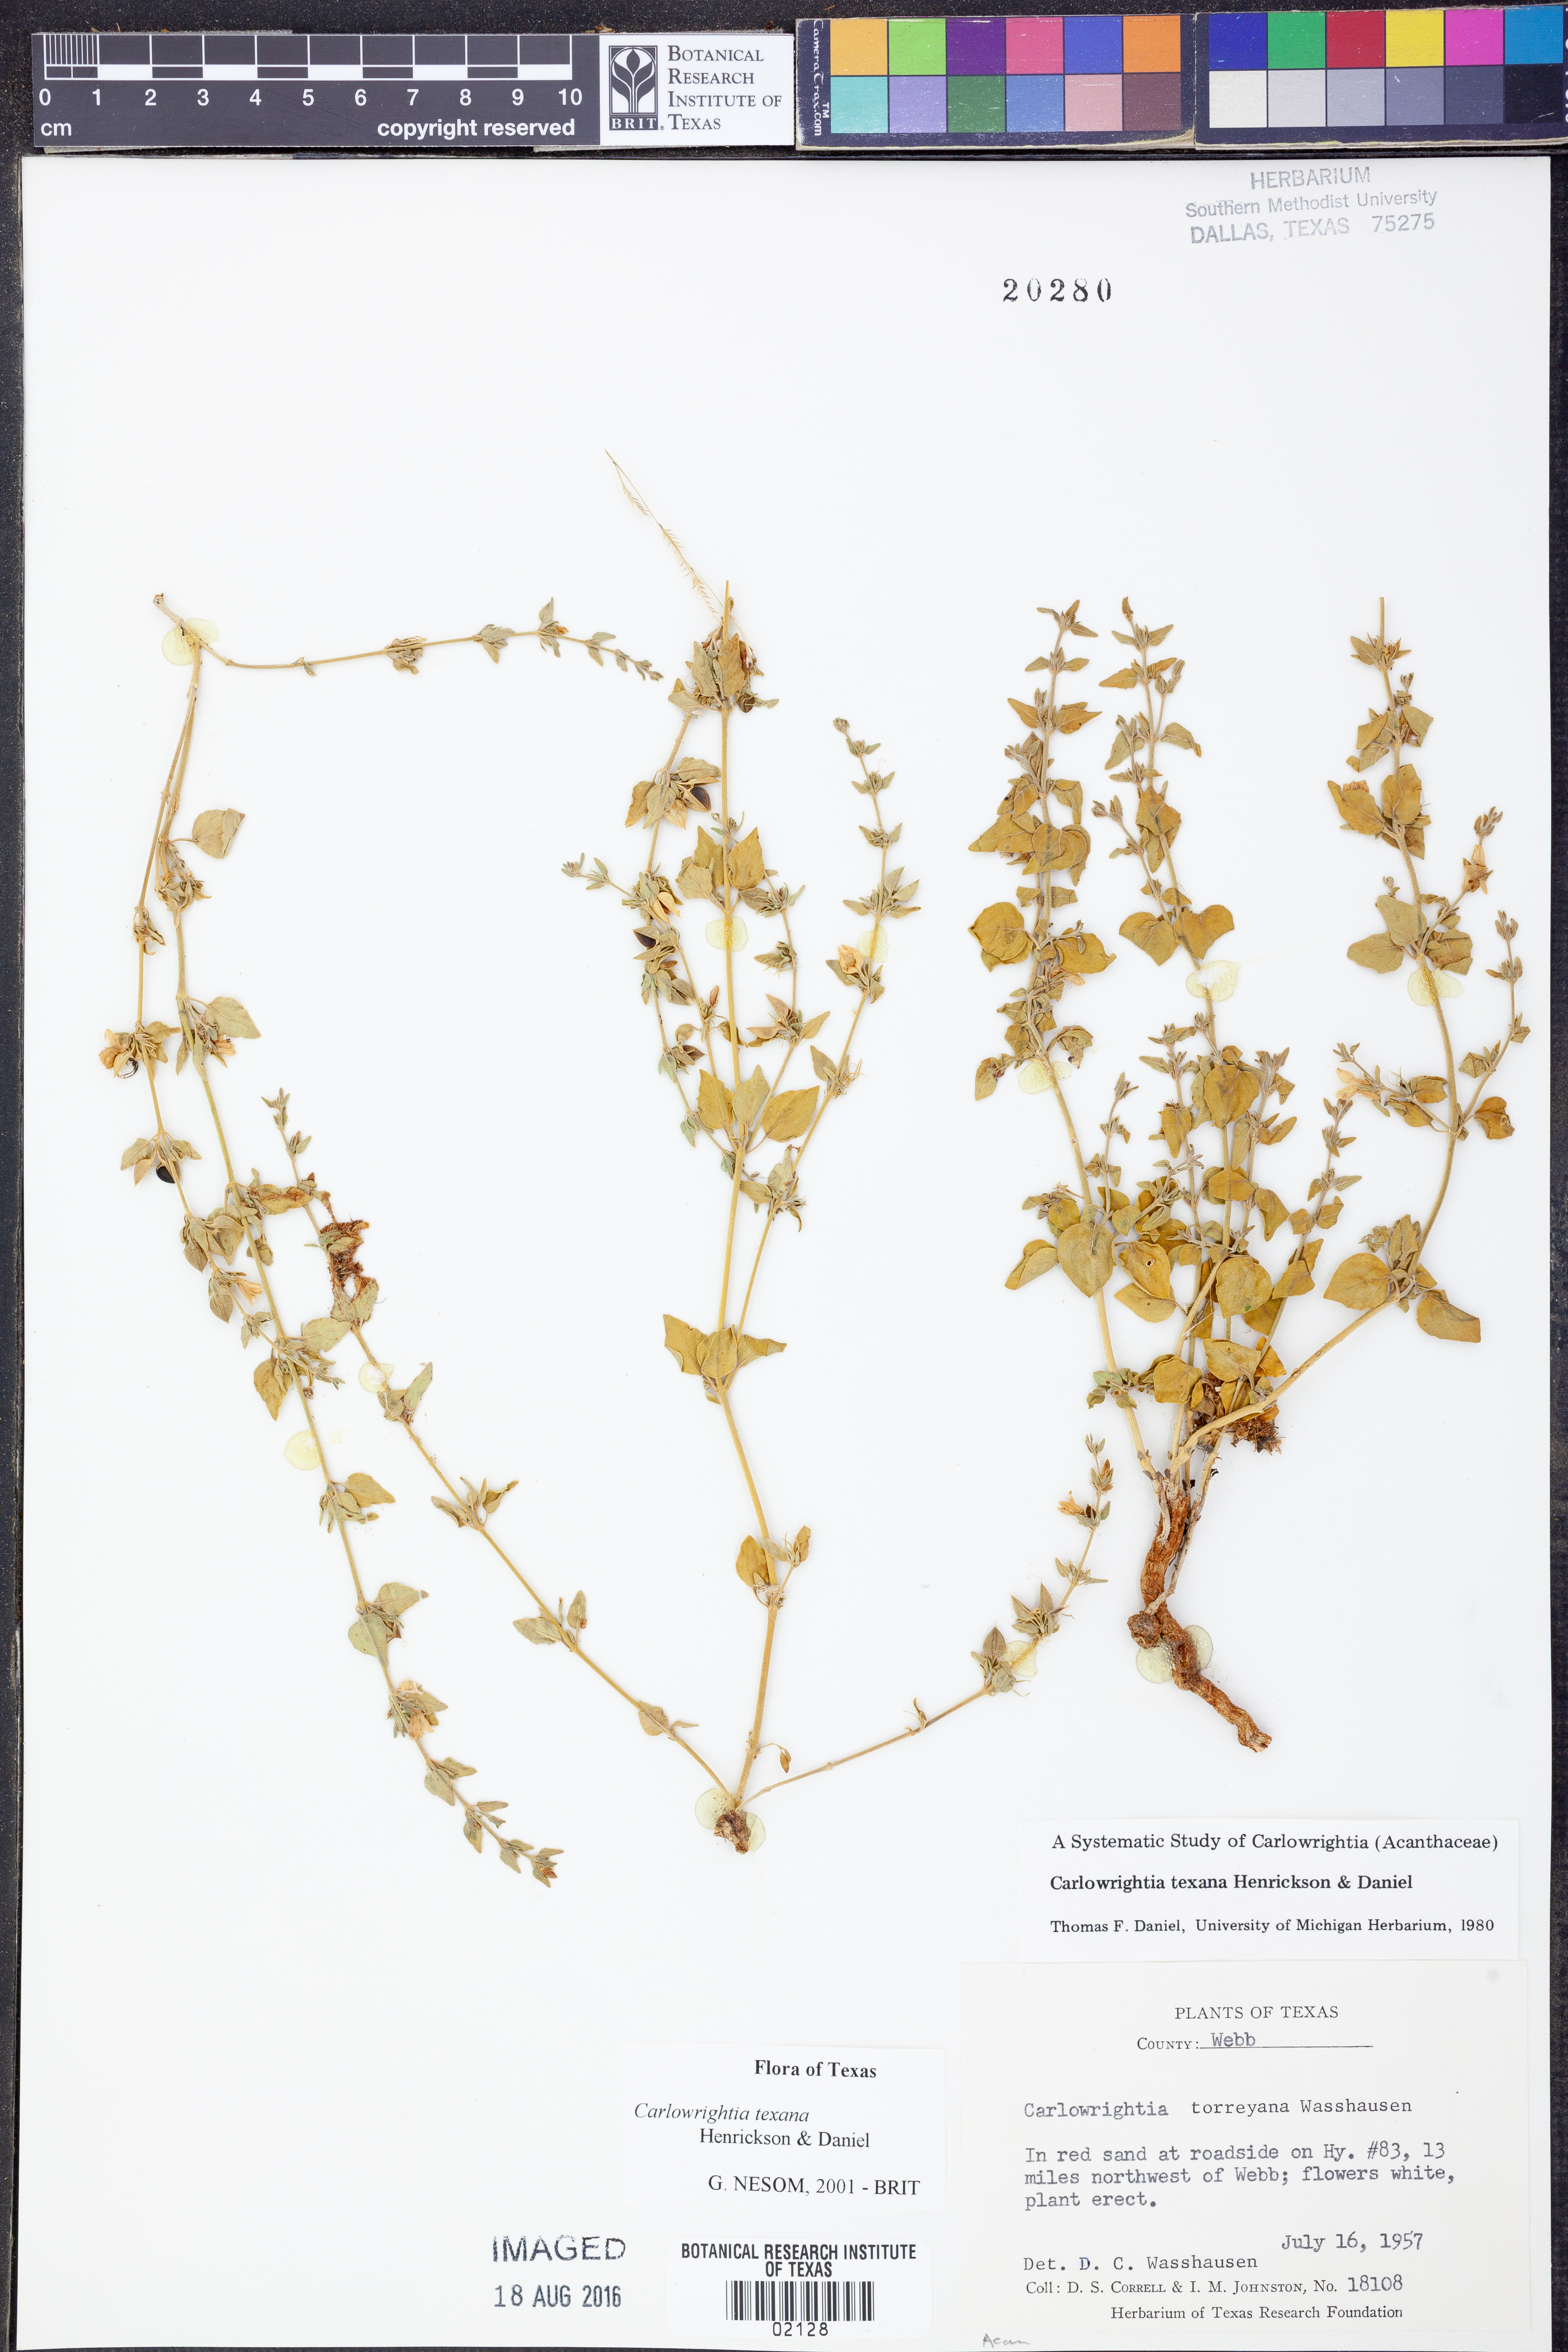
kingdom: Plantae
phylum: Tracheophyta
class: Magnoliopsida
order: Lamiales
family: Acanthaceae
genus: Carlowrightia
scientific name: Carlowrightia texana
